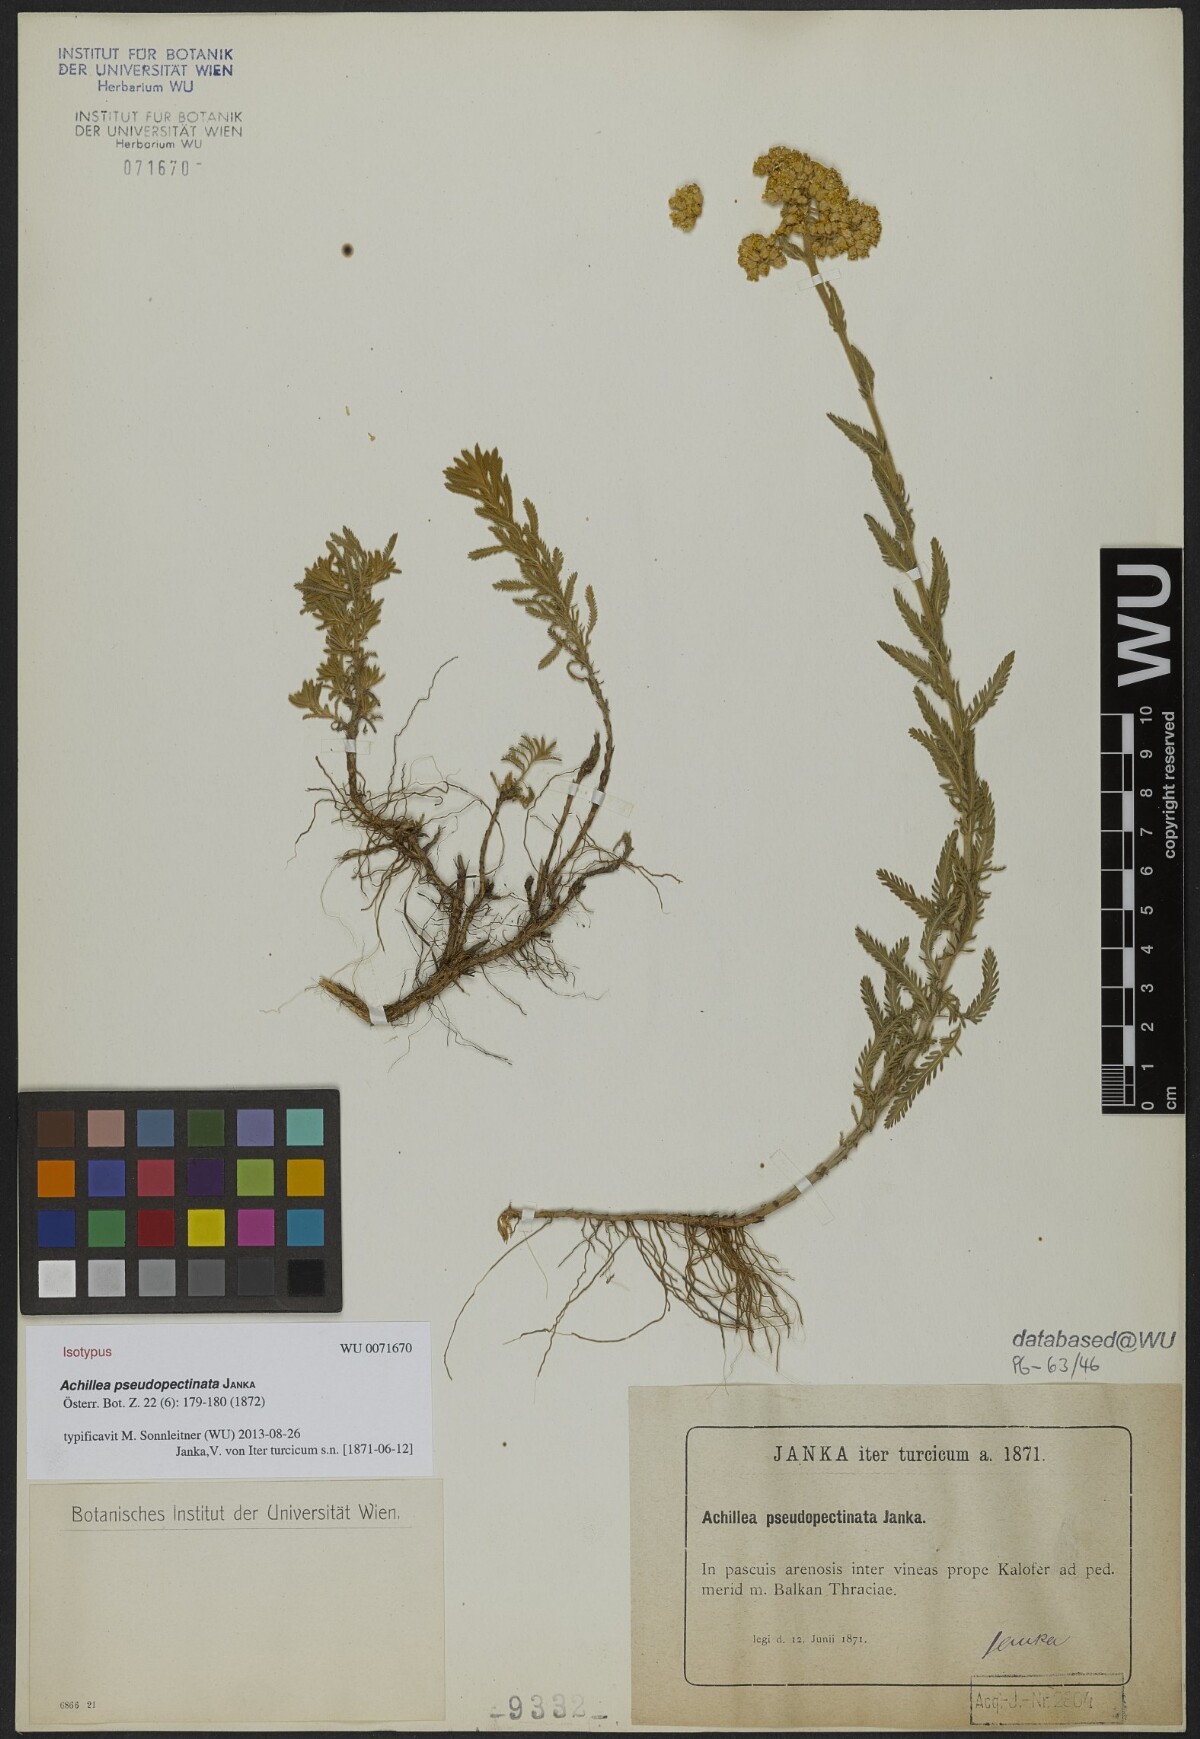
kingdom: Plantae
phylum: Tracheophyta
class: Magnoliopsida
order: Asterales
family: Asteraceae
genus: Achillea
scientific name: Achillea pseudopectinata
